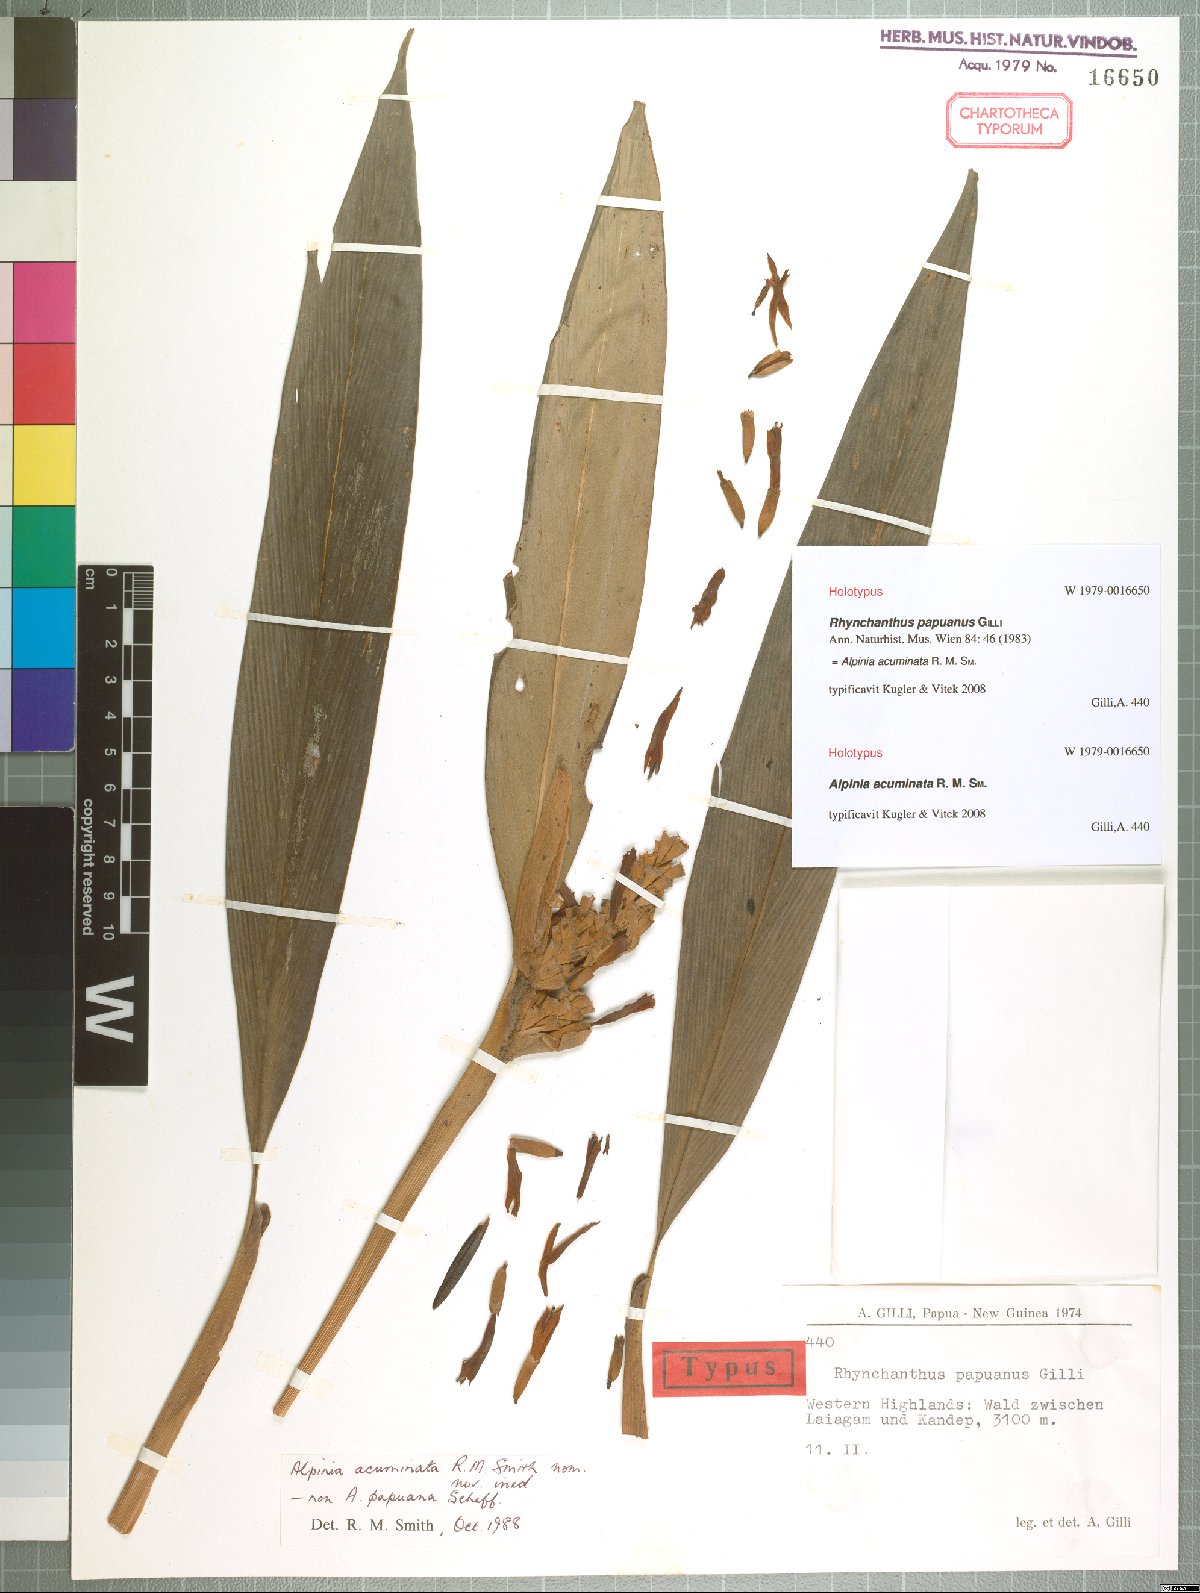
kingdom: Plantae
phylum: Tracheophyta
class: Liliopsida
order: Zingiberales
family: Zingiberaceae
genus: Alpinia
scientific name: Alpinia acuminata
